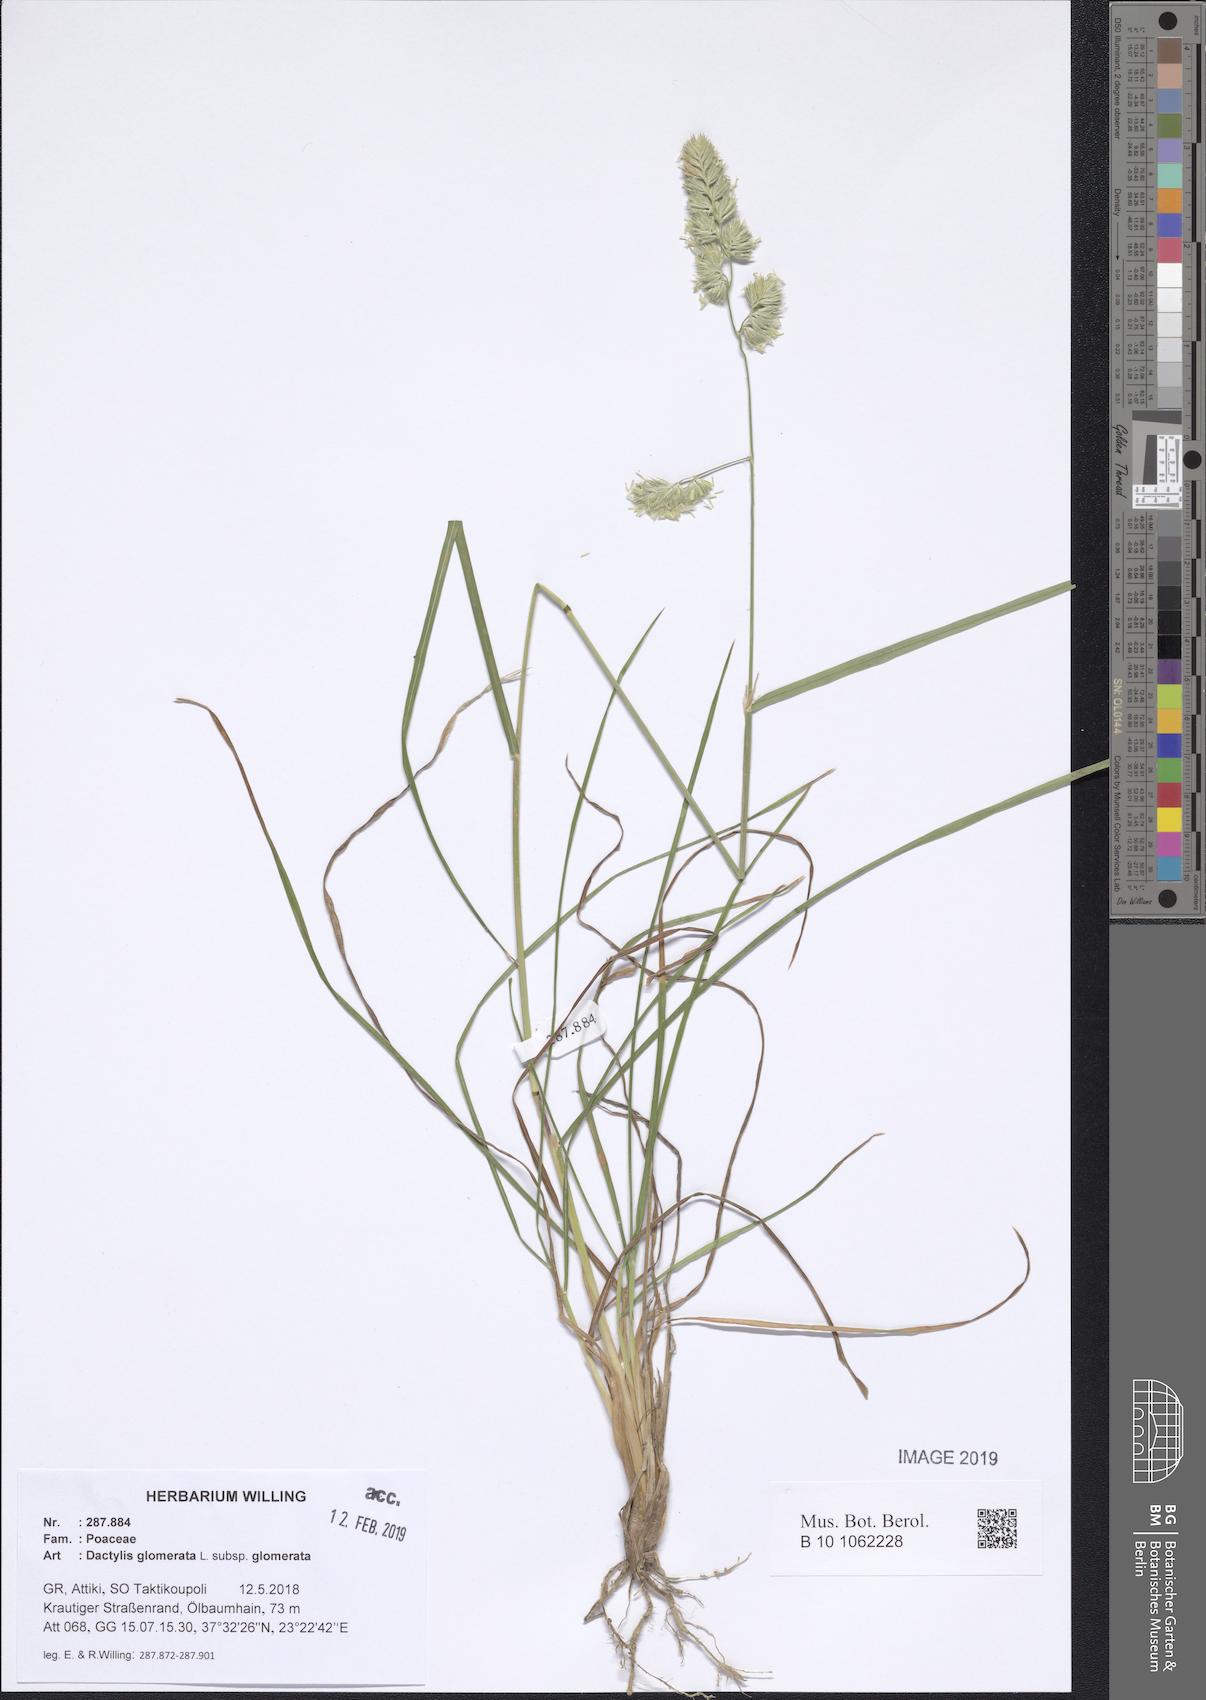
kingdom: Plantae
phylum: Tracheophyta
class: Liliopsida
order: Poales
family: Poaceae
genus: Dactylis
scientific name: Dactylis glomerata
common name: Orchardgrass
